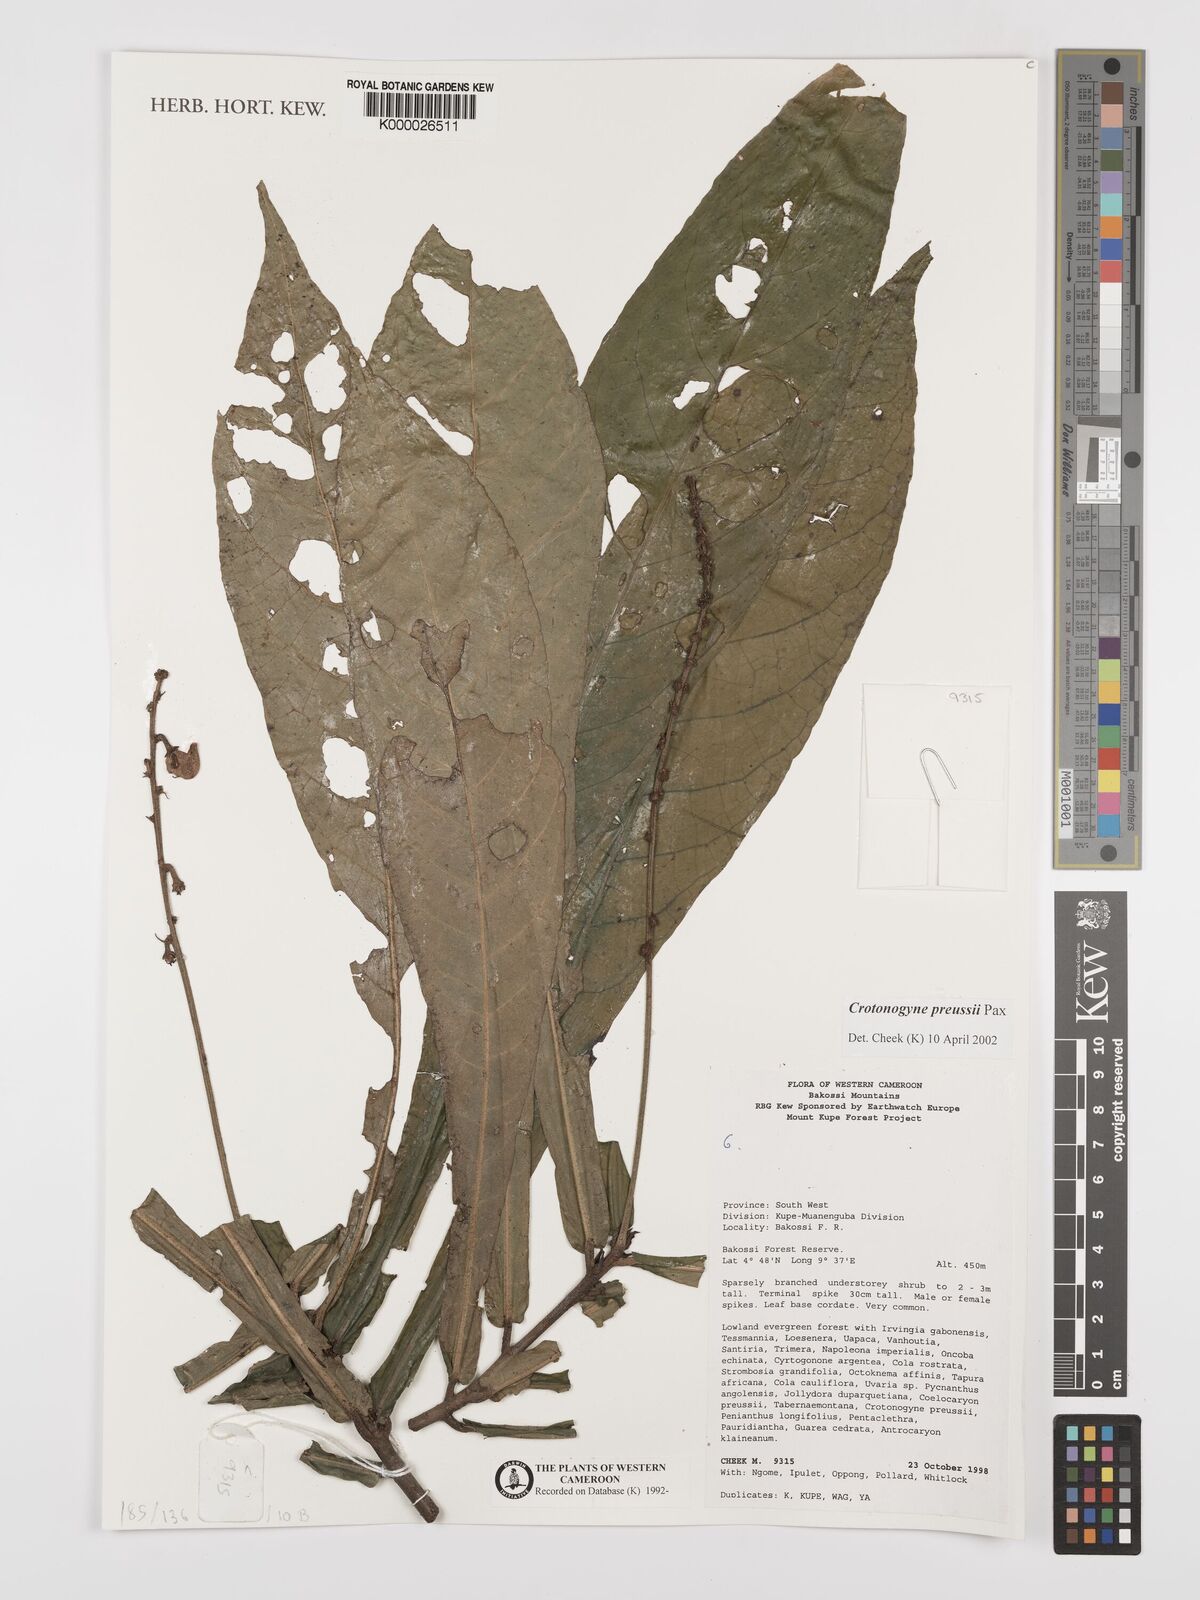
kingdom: Plantae
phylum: Tracheophyta
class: Magnoliopsida
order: Malpighiales
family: Euphorbiaceae
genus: Crotonogyne
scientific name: Crotonogyne preussii
